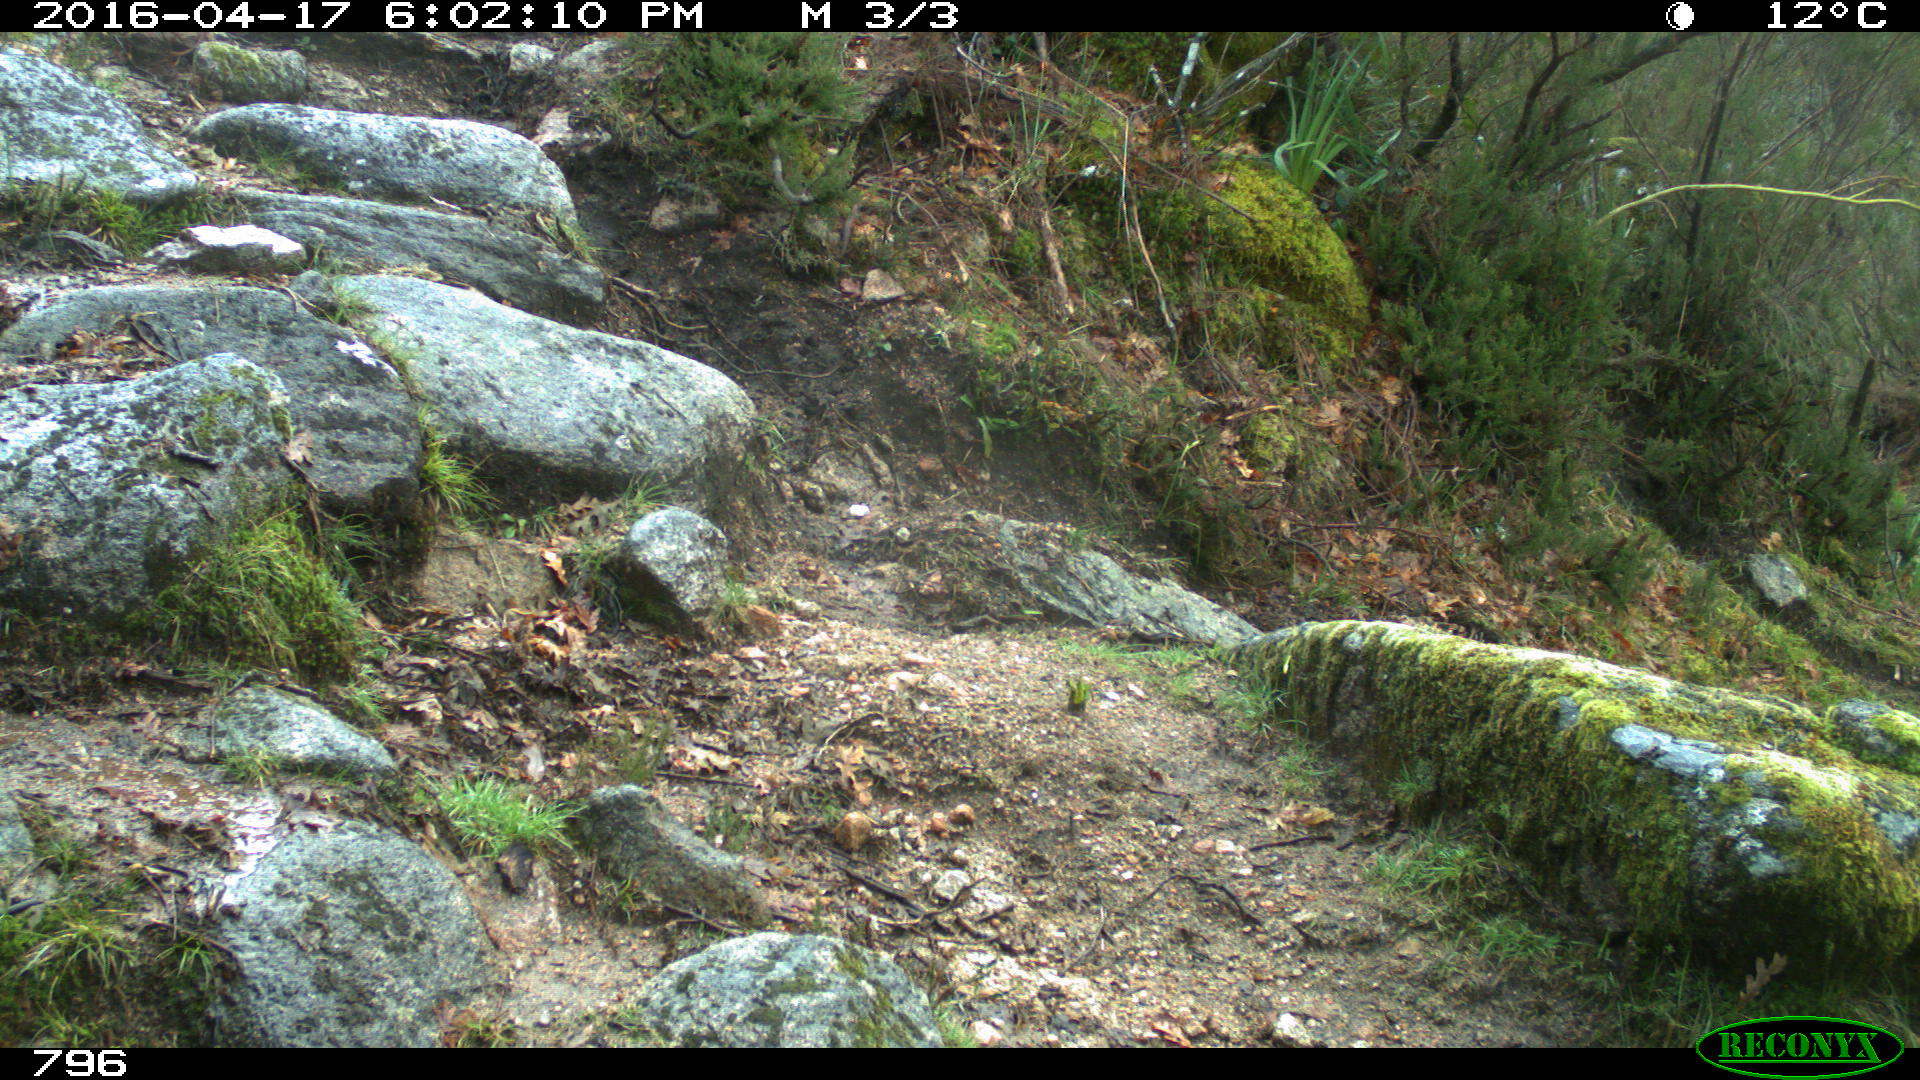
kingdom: Animalia
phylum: Chordata
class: Mammalia
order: Artiodactyla
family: Bovidae
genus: Bos
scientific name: Bos taurus
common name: Domesticated cattle
